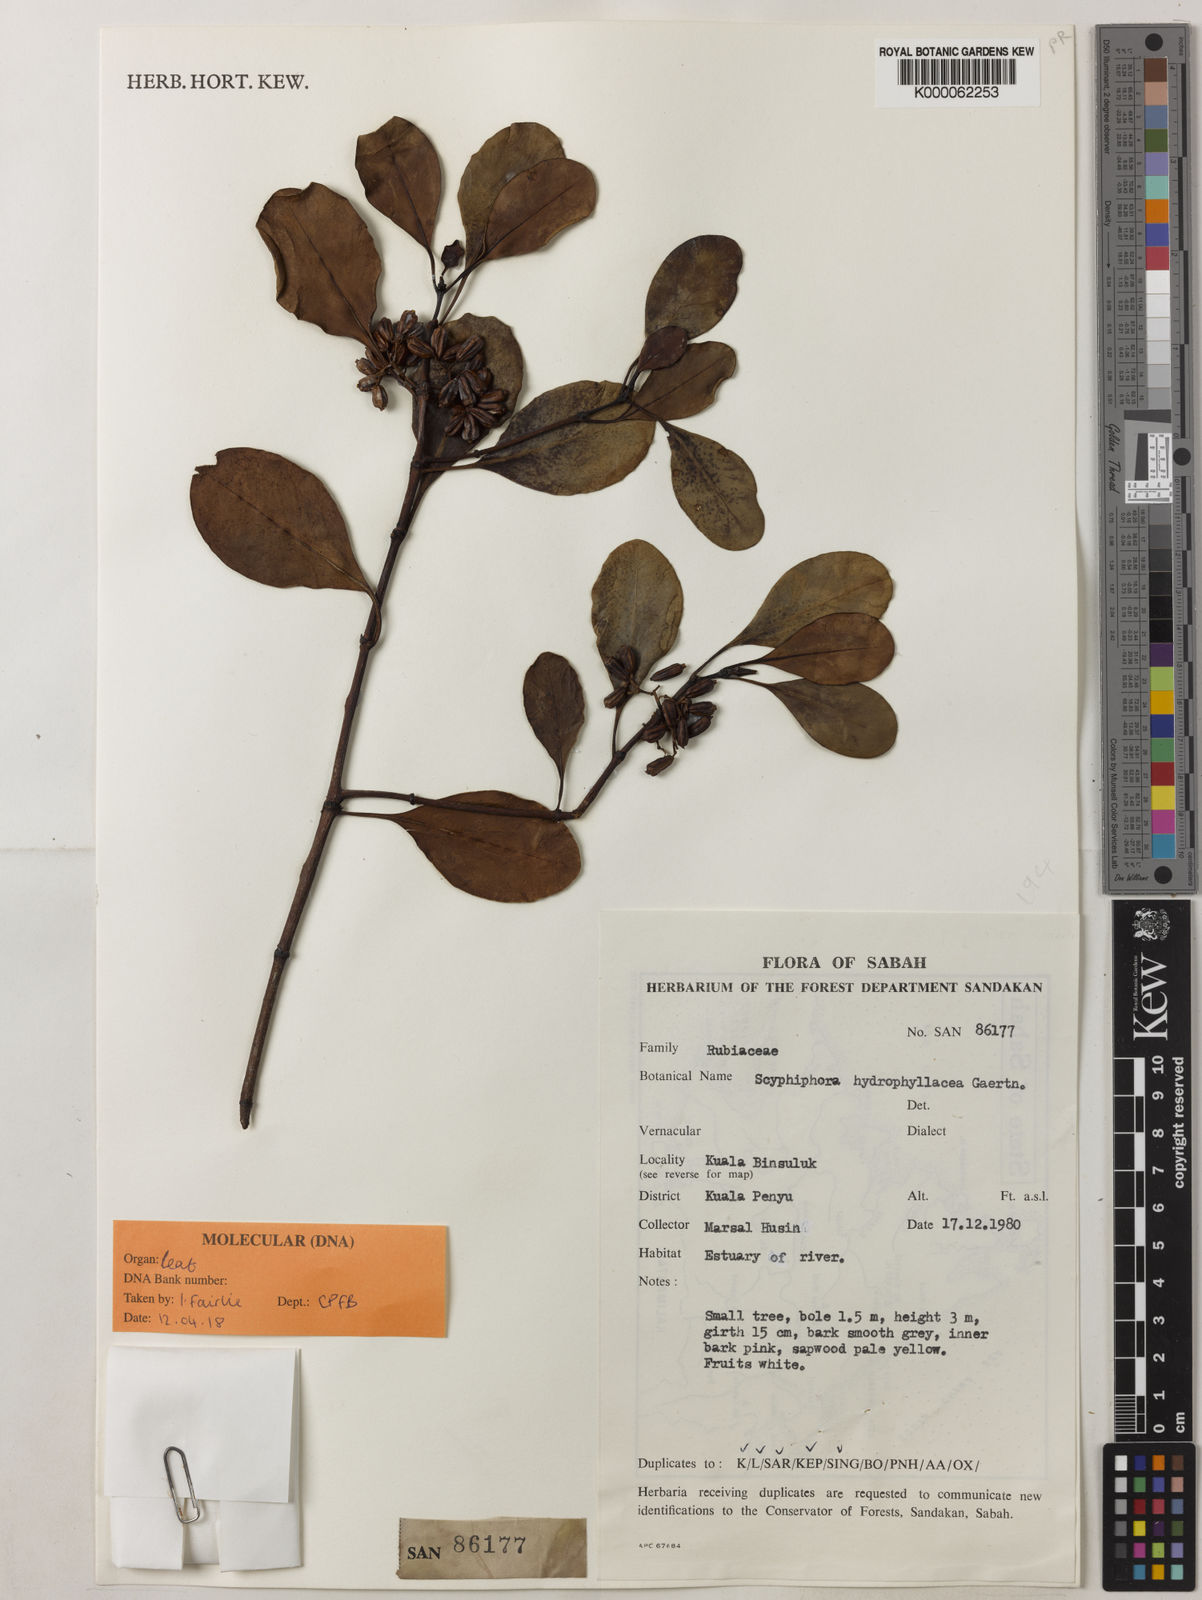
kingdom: Plantae
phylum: Tracheophyta
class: Magnoliopsida
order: Gentianales
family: Rubiaceae
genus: Scyphiphora
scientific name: Scyphiphora hydrophylacea
